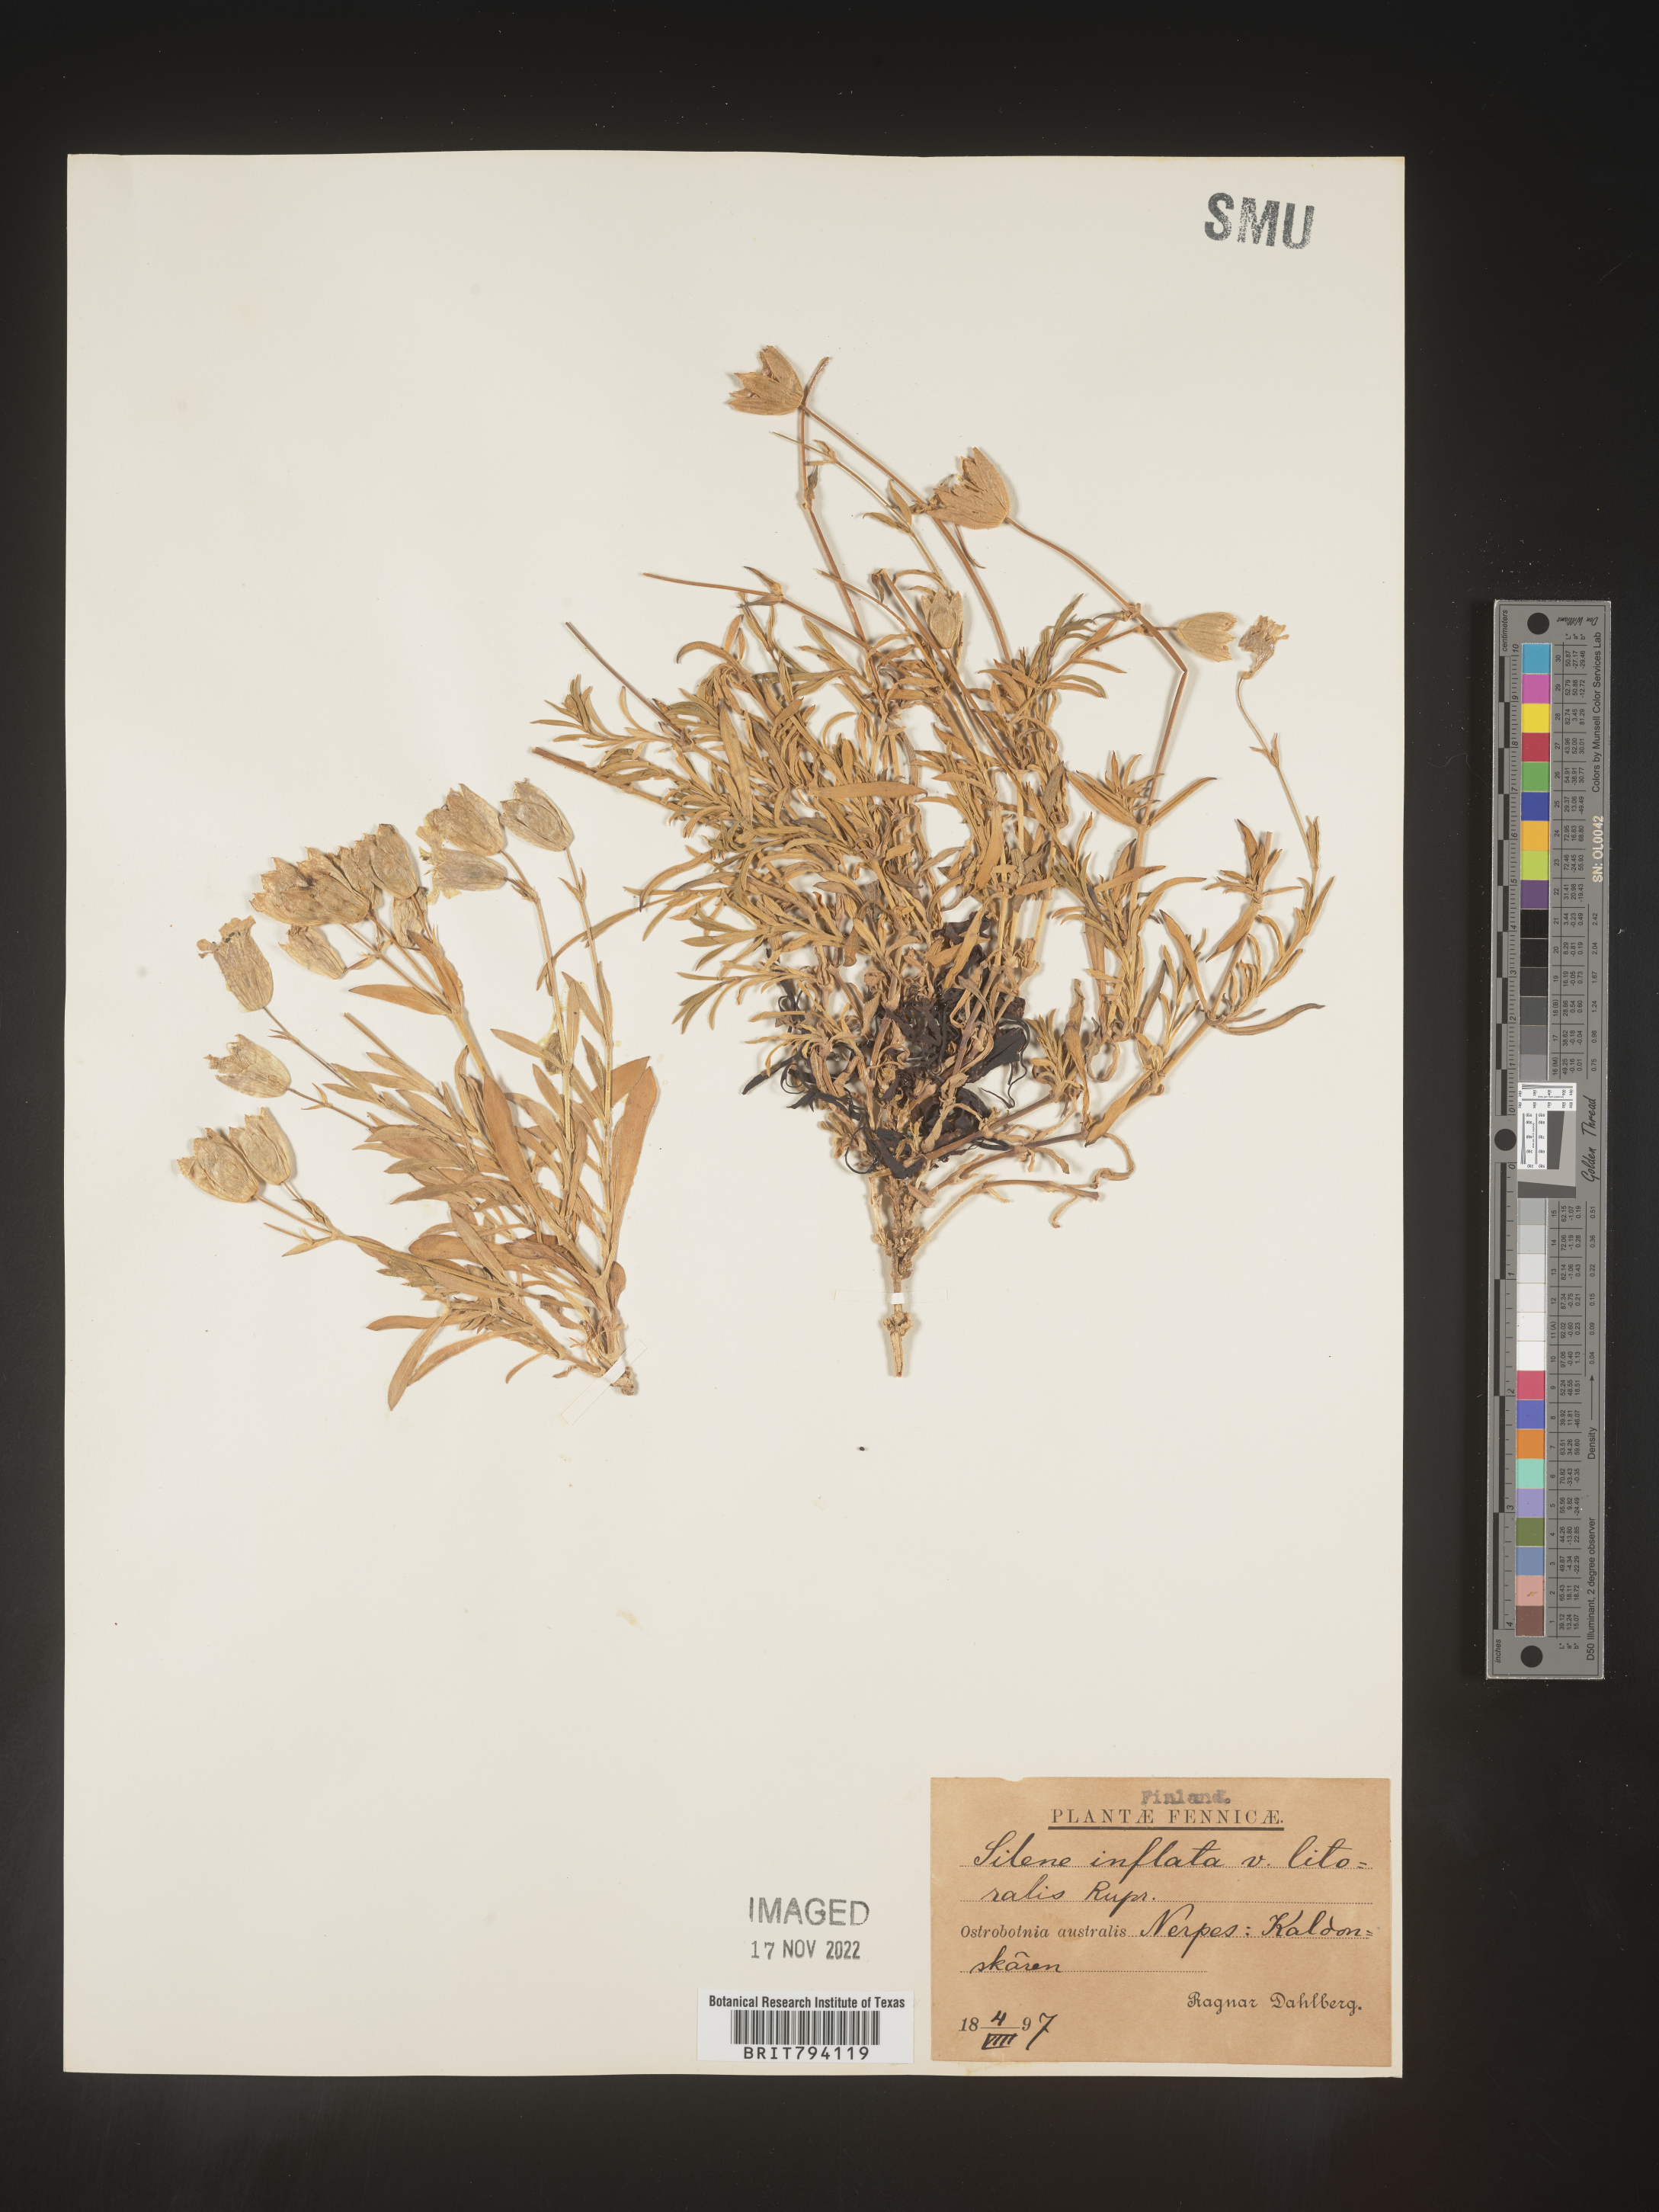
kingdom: Plantae
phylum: Tracheophyta
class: Magnoliopsida
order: Caryophyllales
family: Caryophyllaceae
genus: Silene
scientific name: Silene vulgaris
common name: Bladder campion
